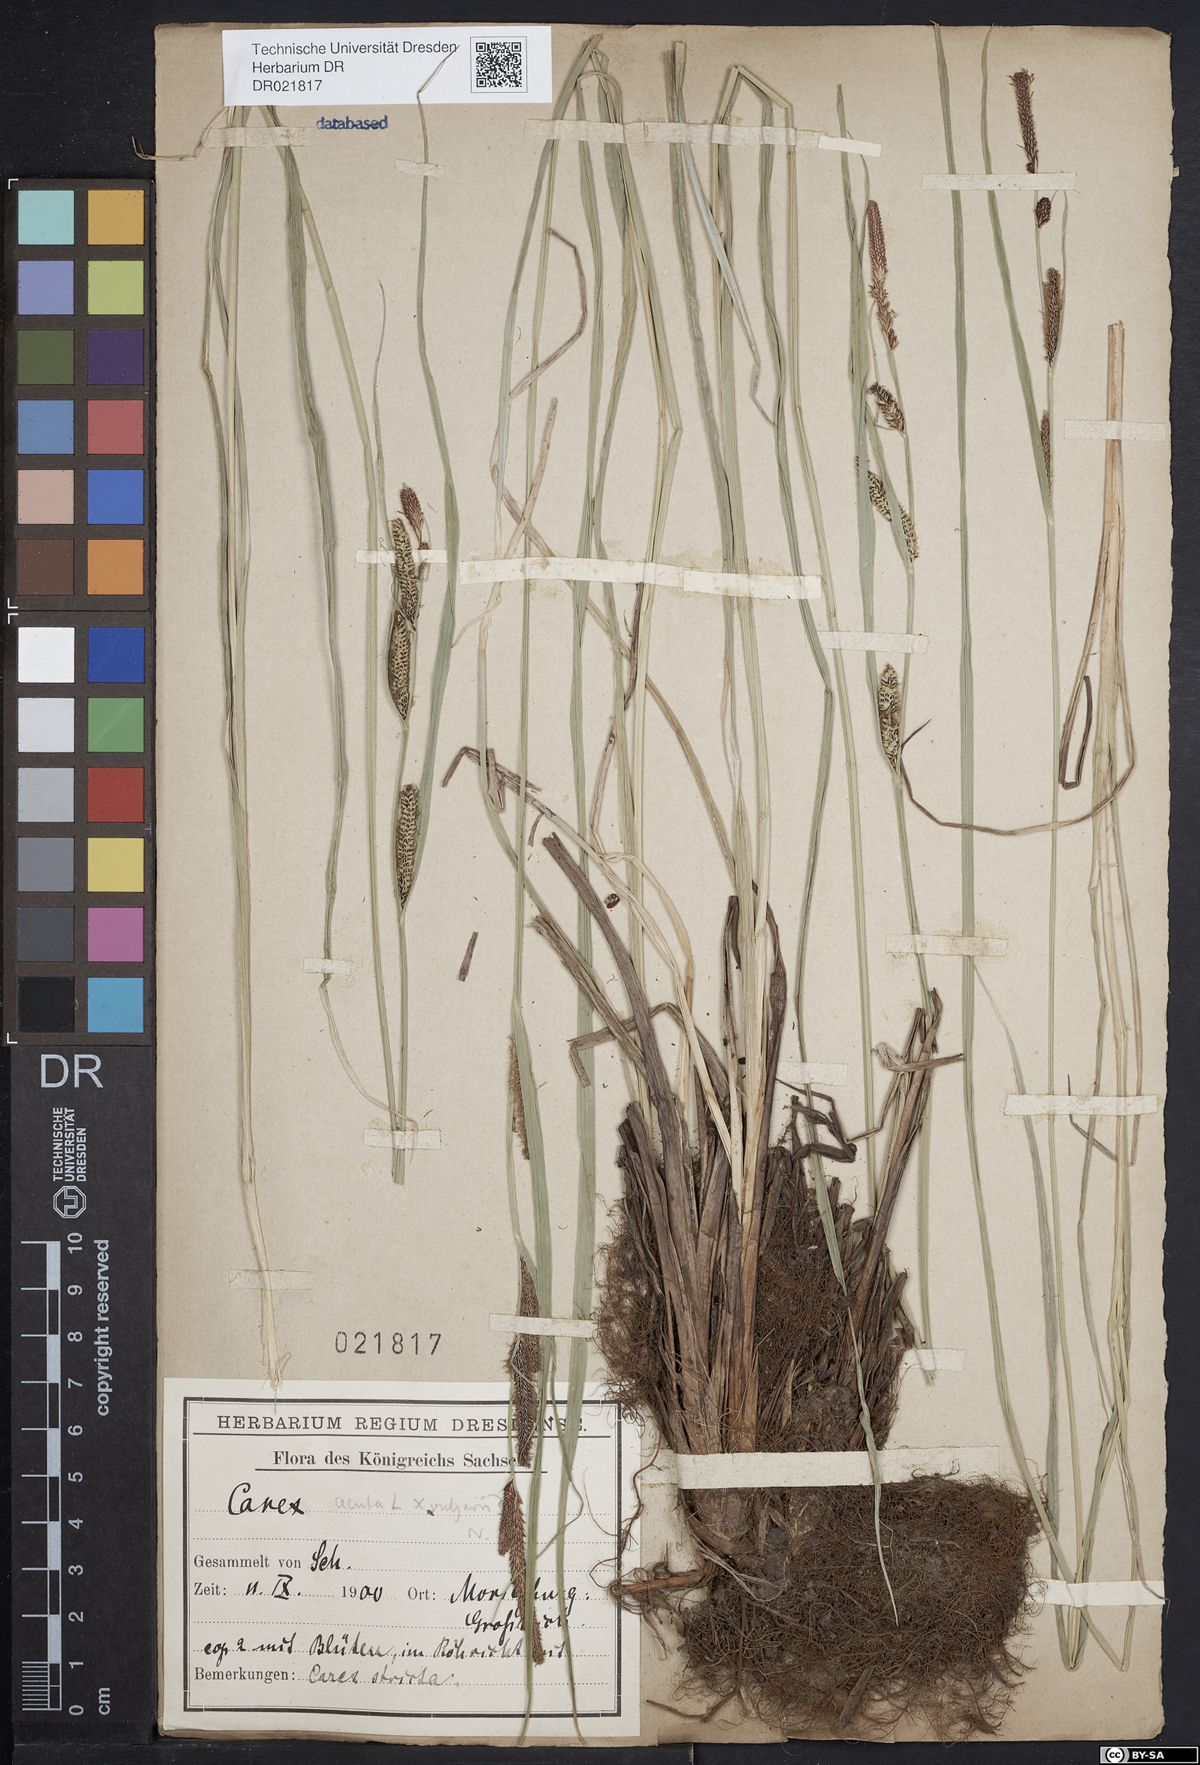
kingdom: Plantae
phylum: Tracheophyta
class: Liliopsida
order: Poales
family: Cyperaceae
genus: Carex
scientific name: Carex elytroides
